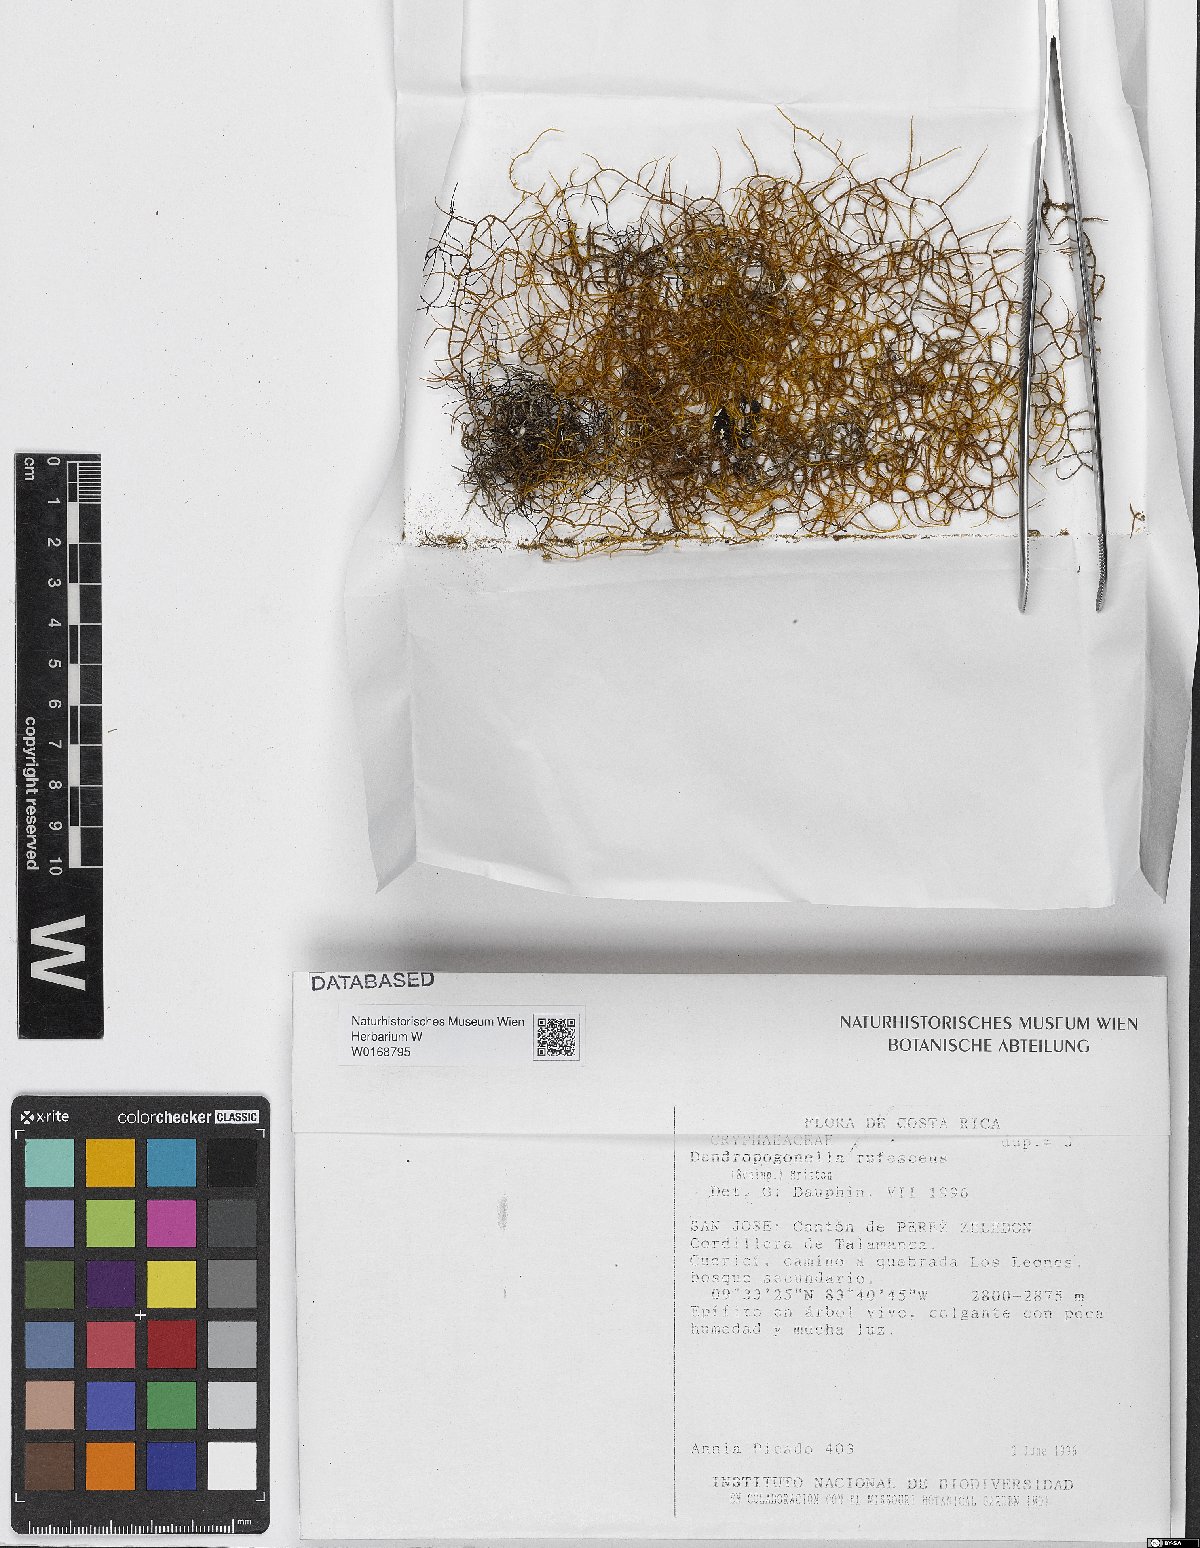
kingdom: Plantae
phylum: Bryophyta
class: Bryopsida
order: Hypnales
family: Cryphaeaceae
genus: Dendropogonella
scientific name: Dendropogonella rufescens
